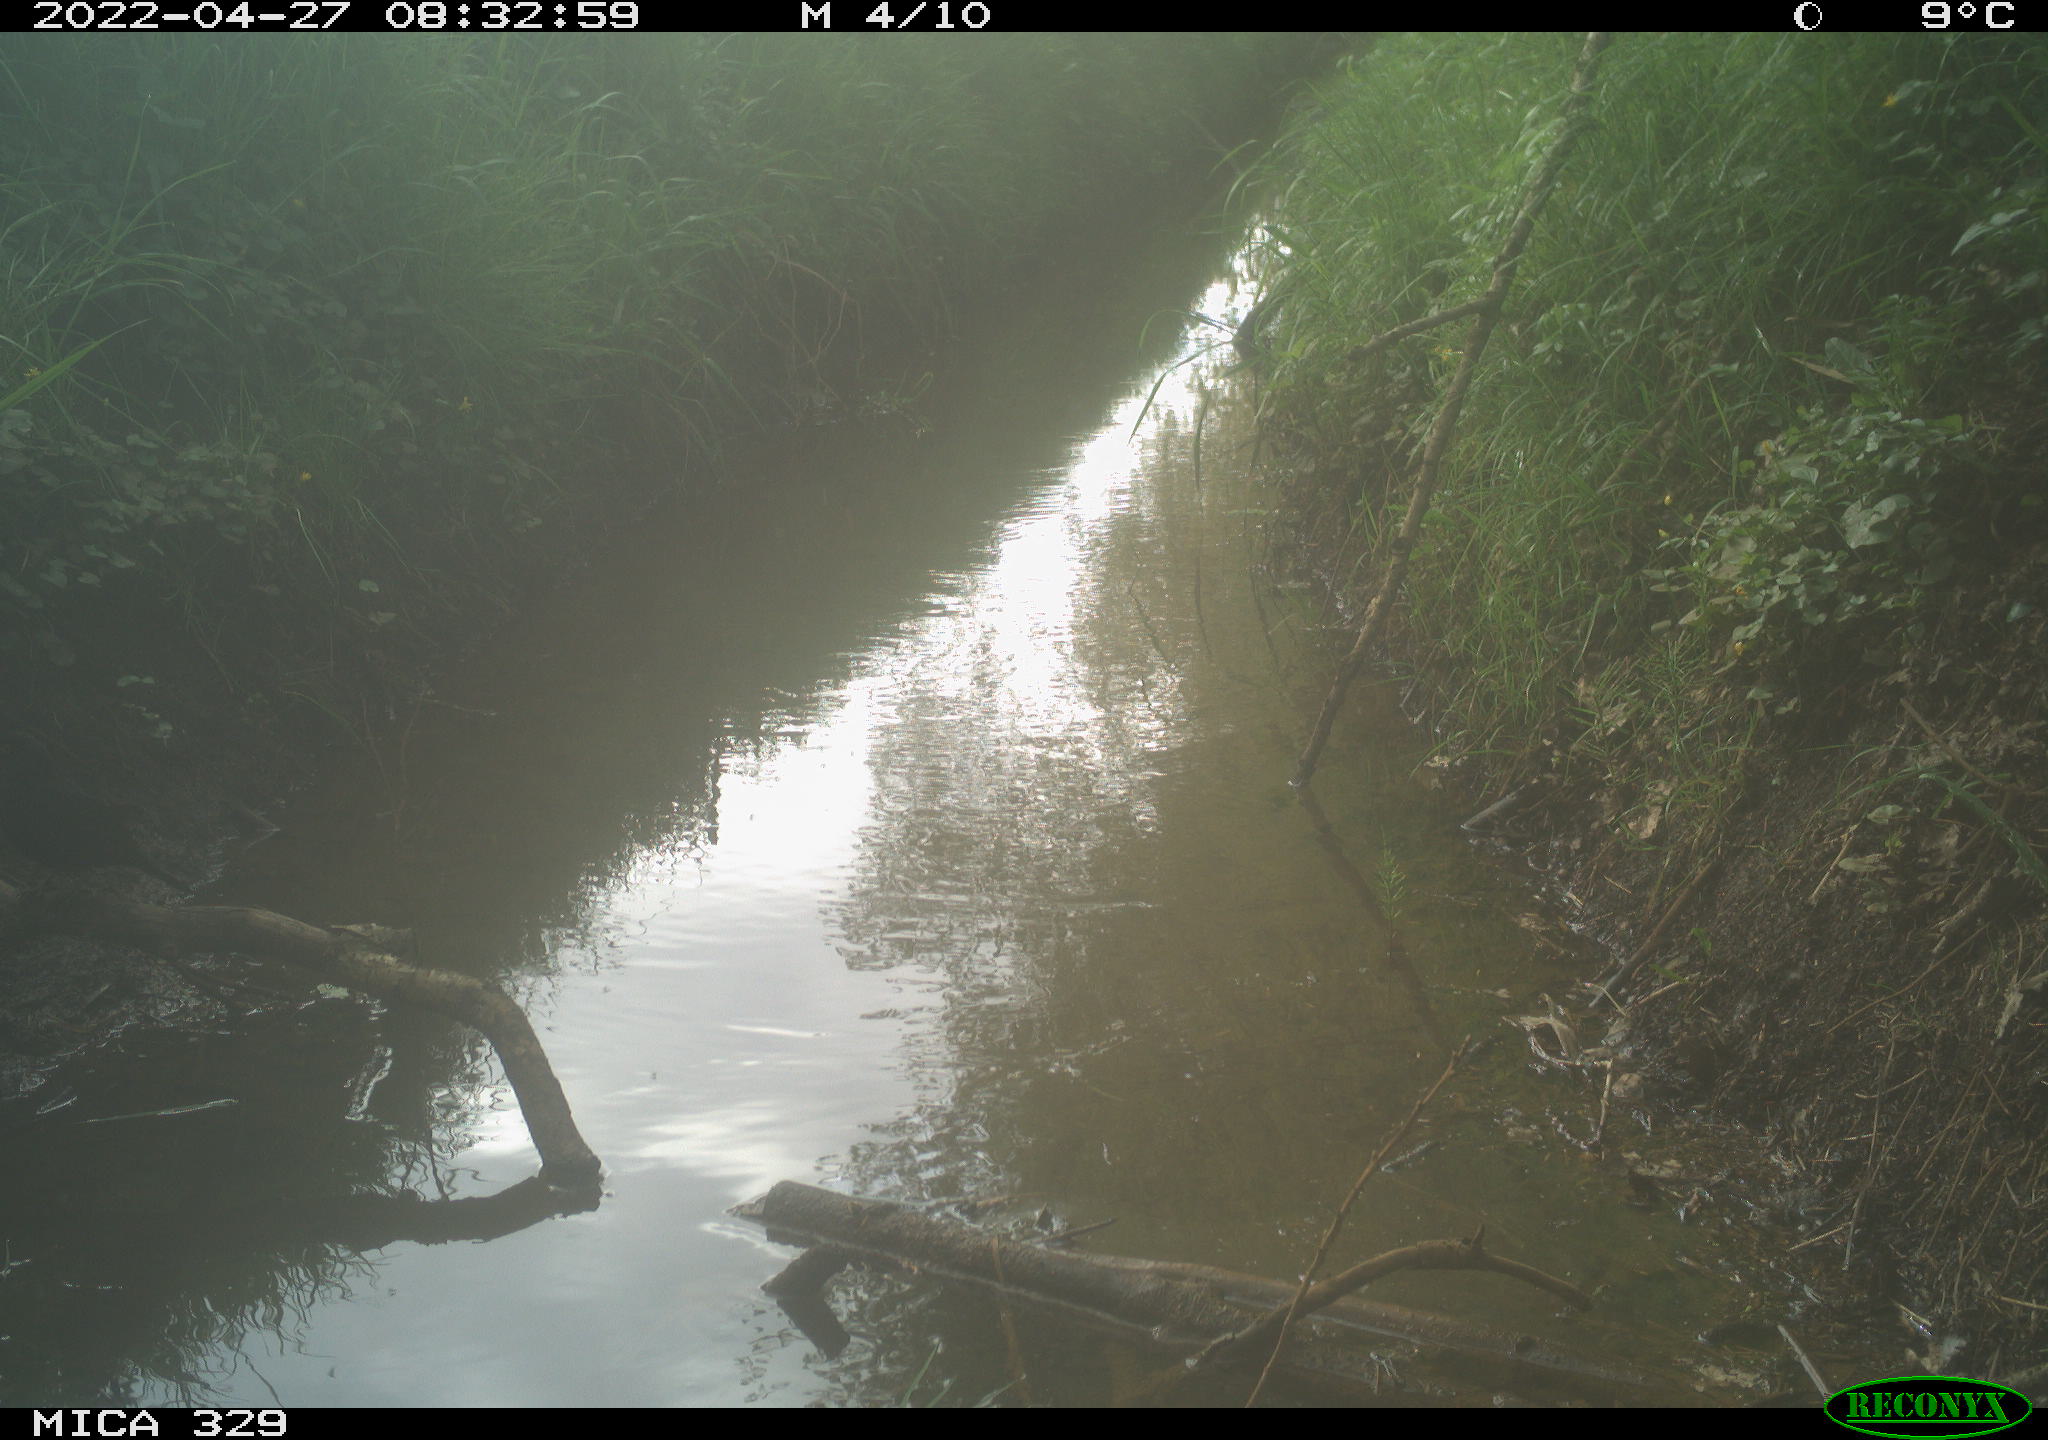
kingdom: Animalia
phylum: Chordata
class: Aves
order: Passeriformes
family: Turdidae
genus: Turdus
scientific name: Turdus merula
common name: Common blackbird
